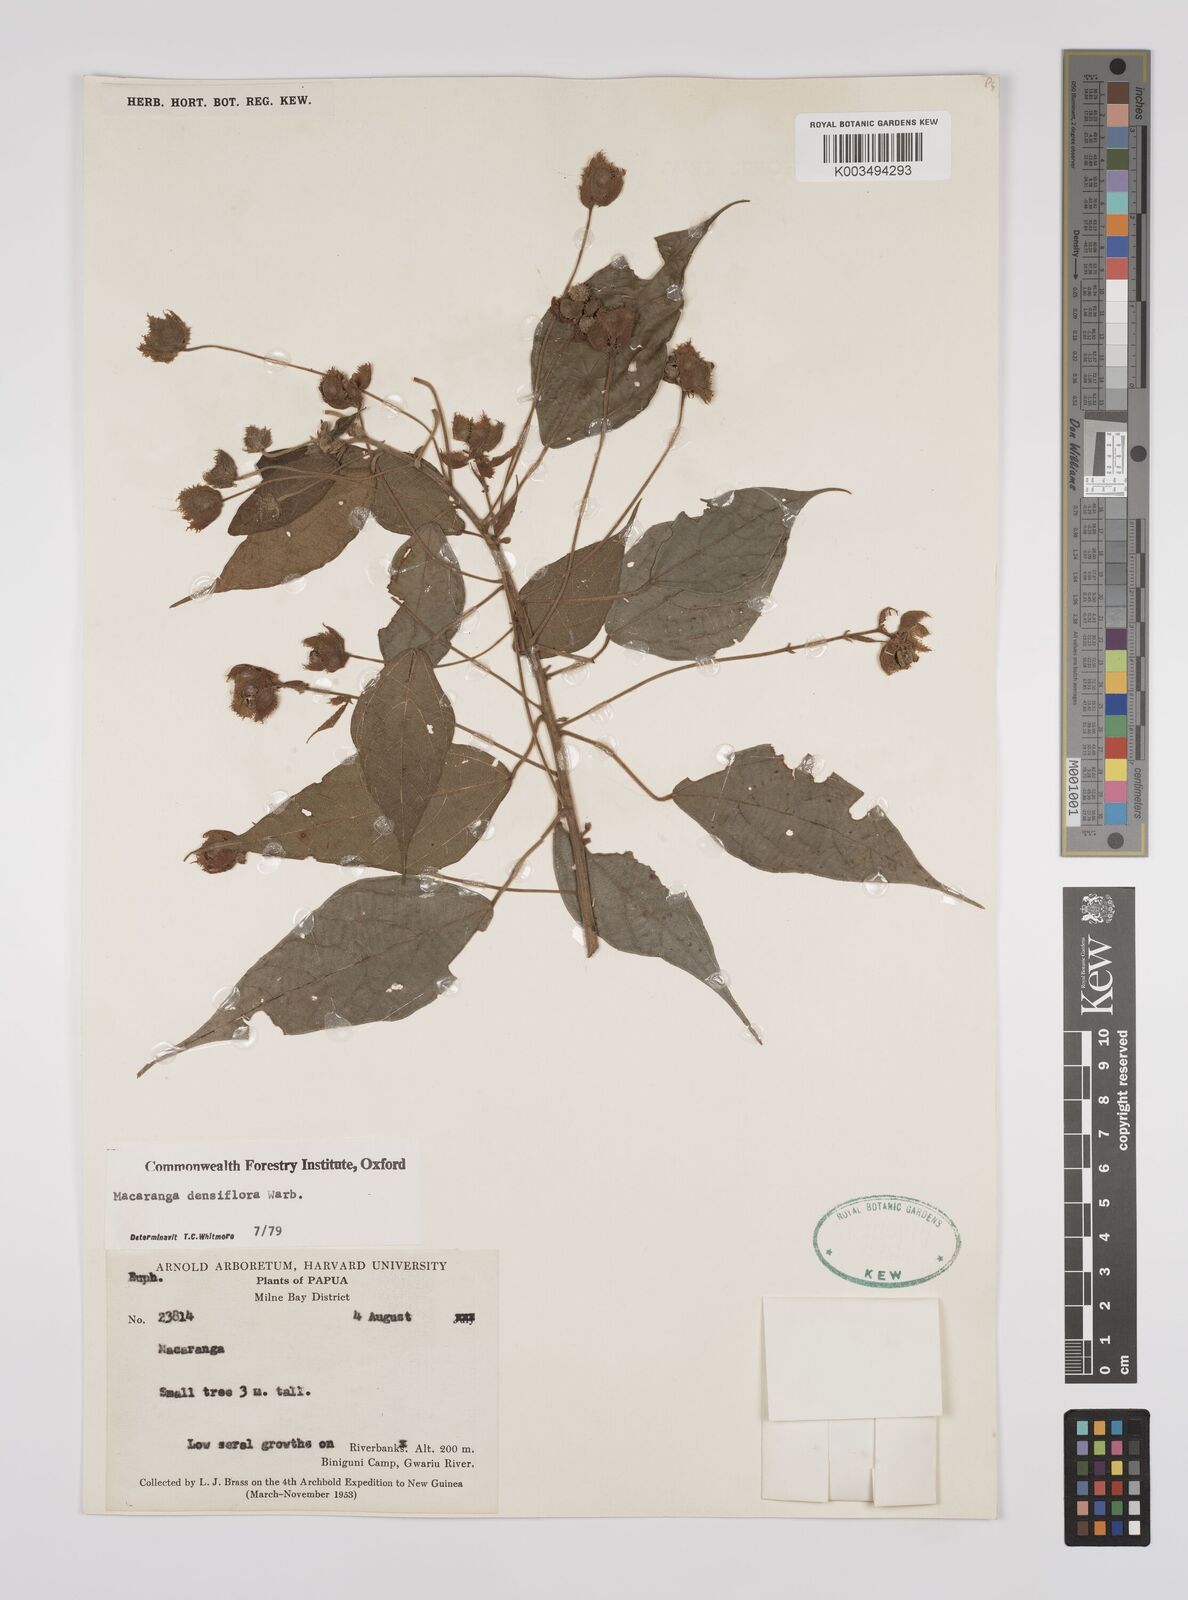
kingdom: Plantae
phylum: Tracheophyta
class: Magnoliopsida
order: Malpighiales
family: Euphorbiaceae
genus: Macaranga
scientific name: Macaranga densiflora
